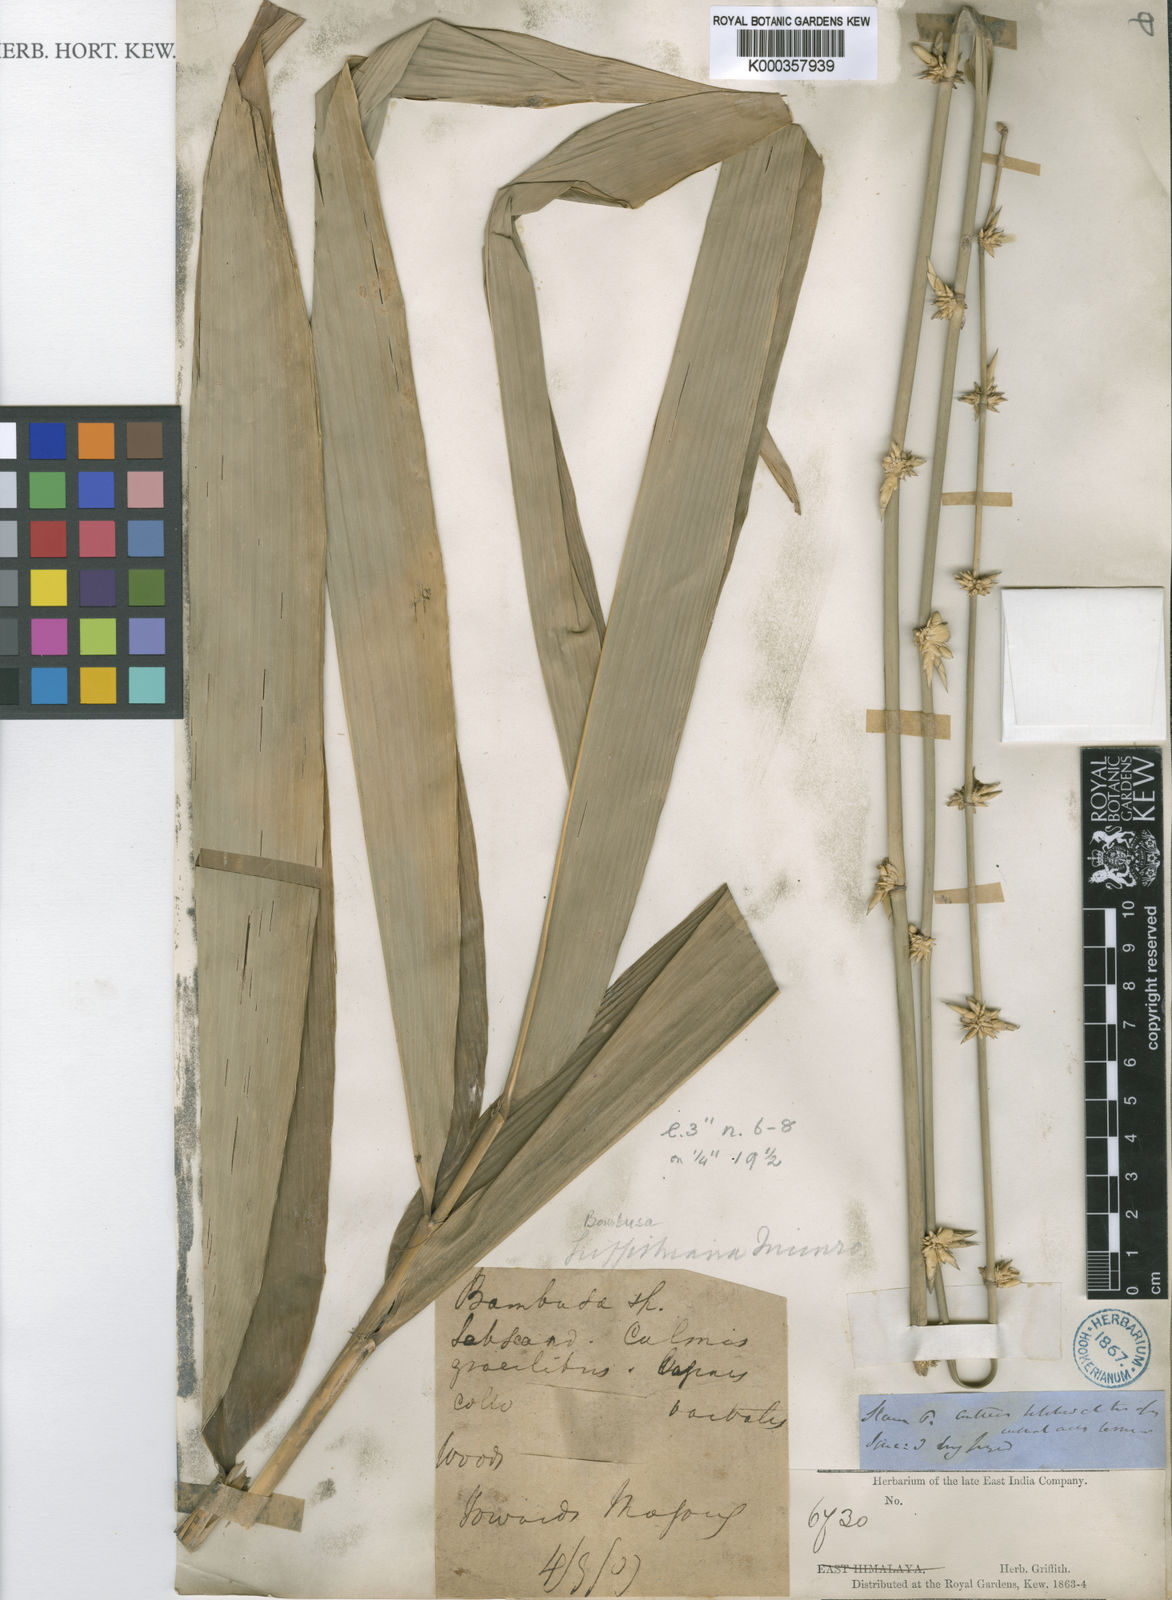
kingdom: Plantae
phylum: Tracheophyta
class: Liliopsida
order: Poales
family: Poaceae
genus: Bambusa
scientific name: Bambusa griffithiana
